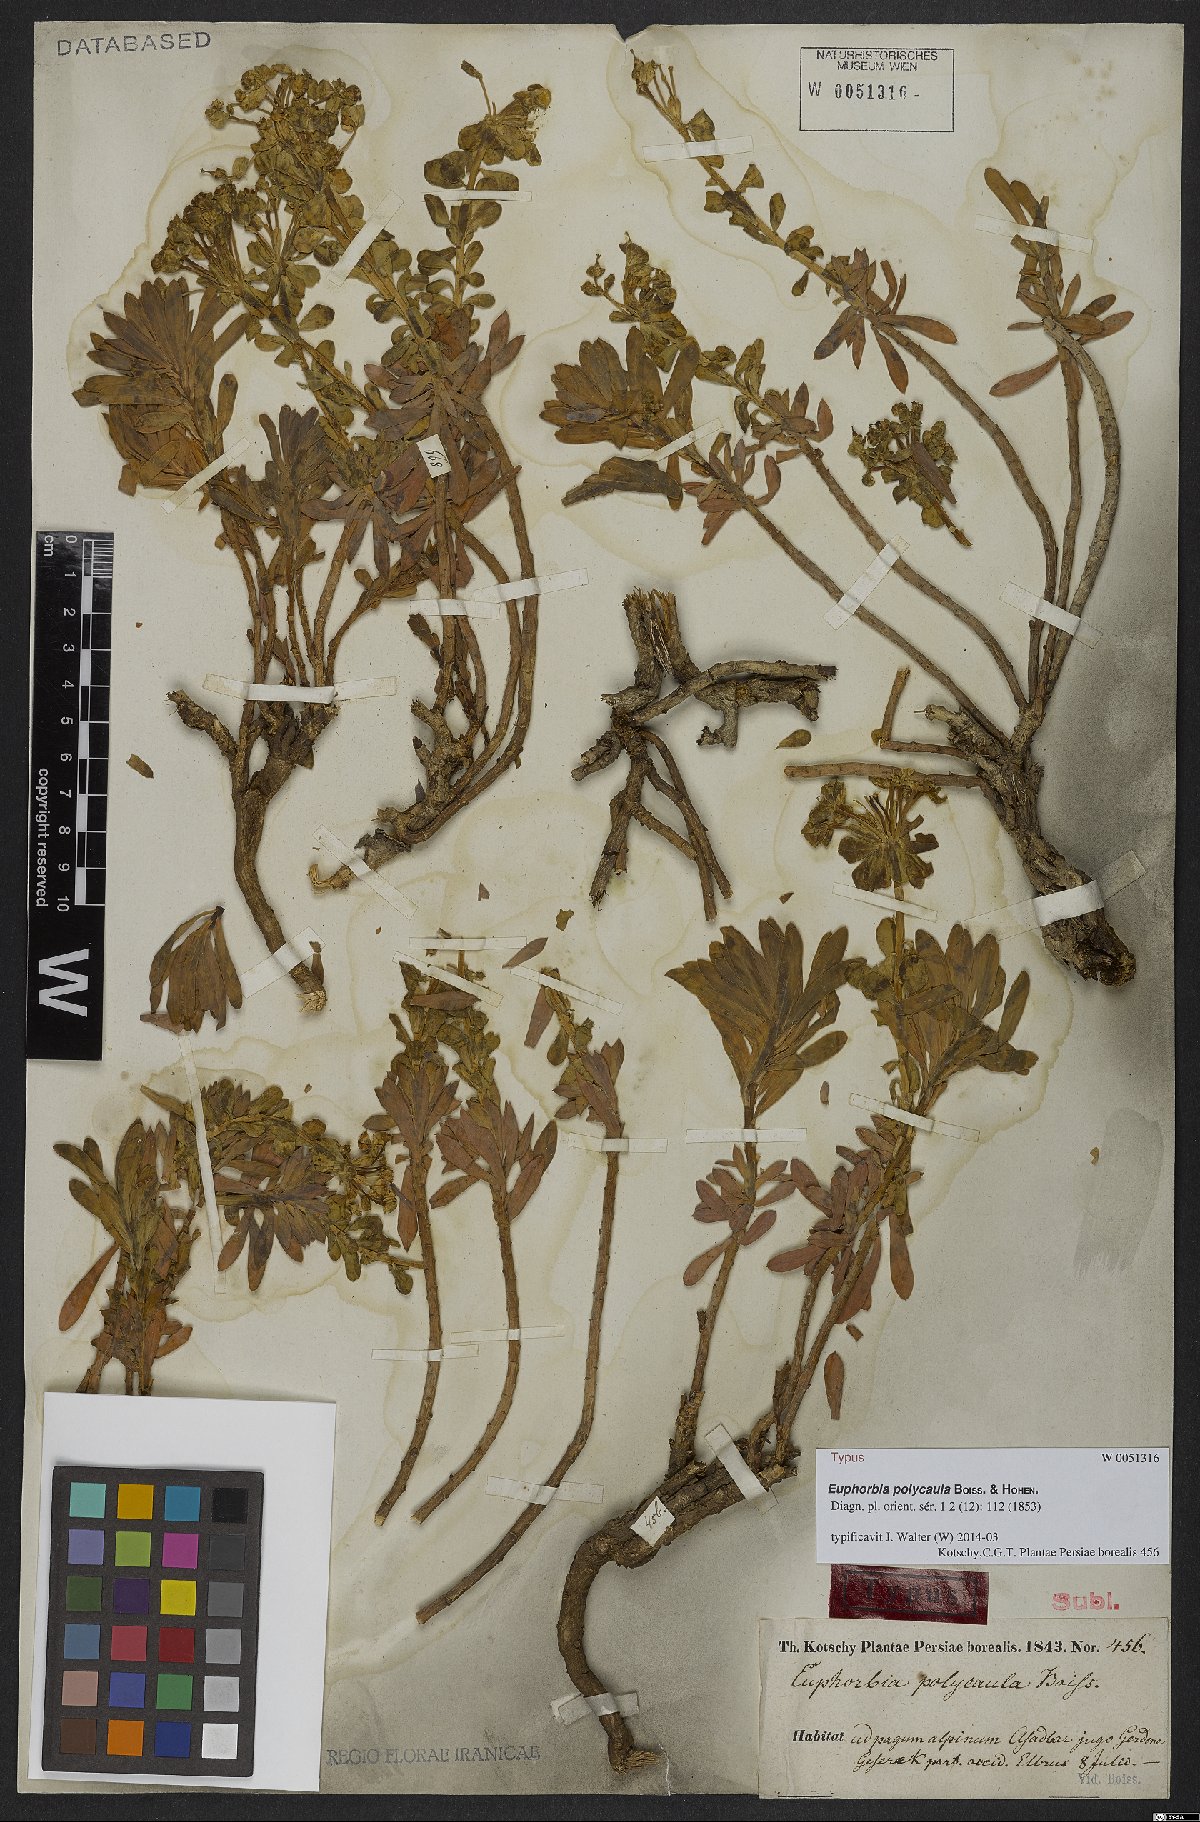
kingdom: Plantae
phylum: Tracheophyta
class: Magnoliopsida
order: Malpighiales
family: Euphorbiaceae
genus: Euphorbia
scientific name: Euphorbia polycaula
